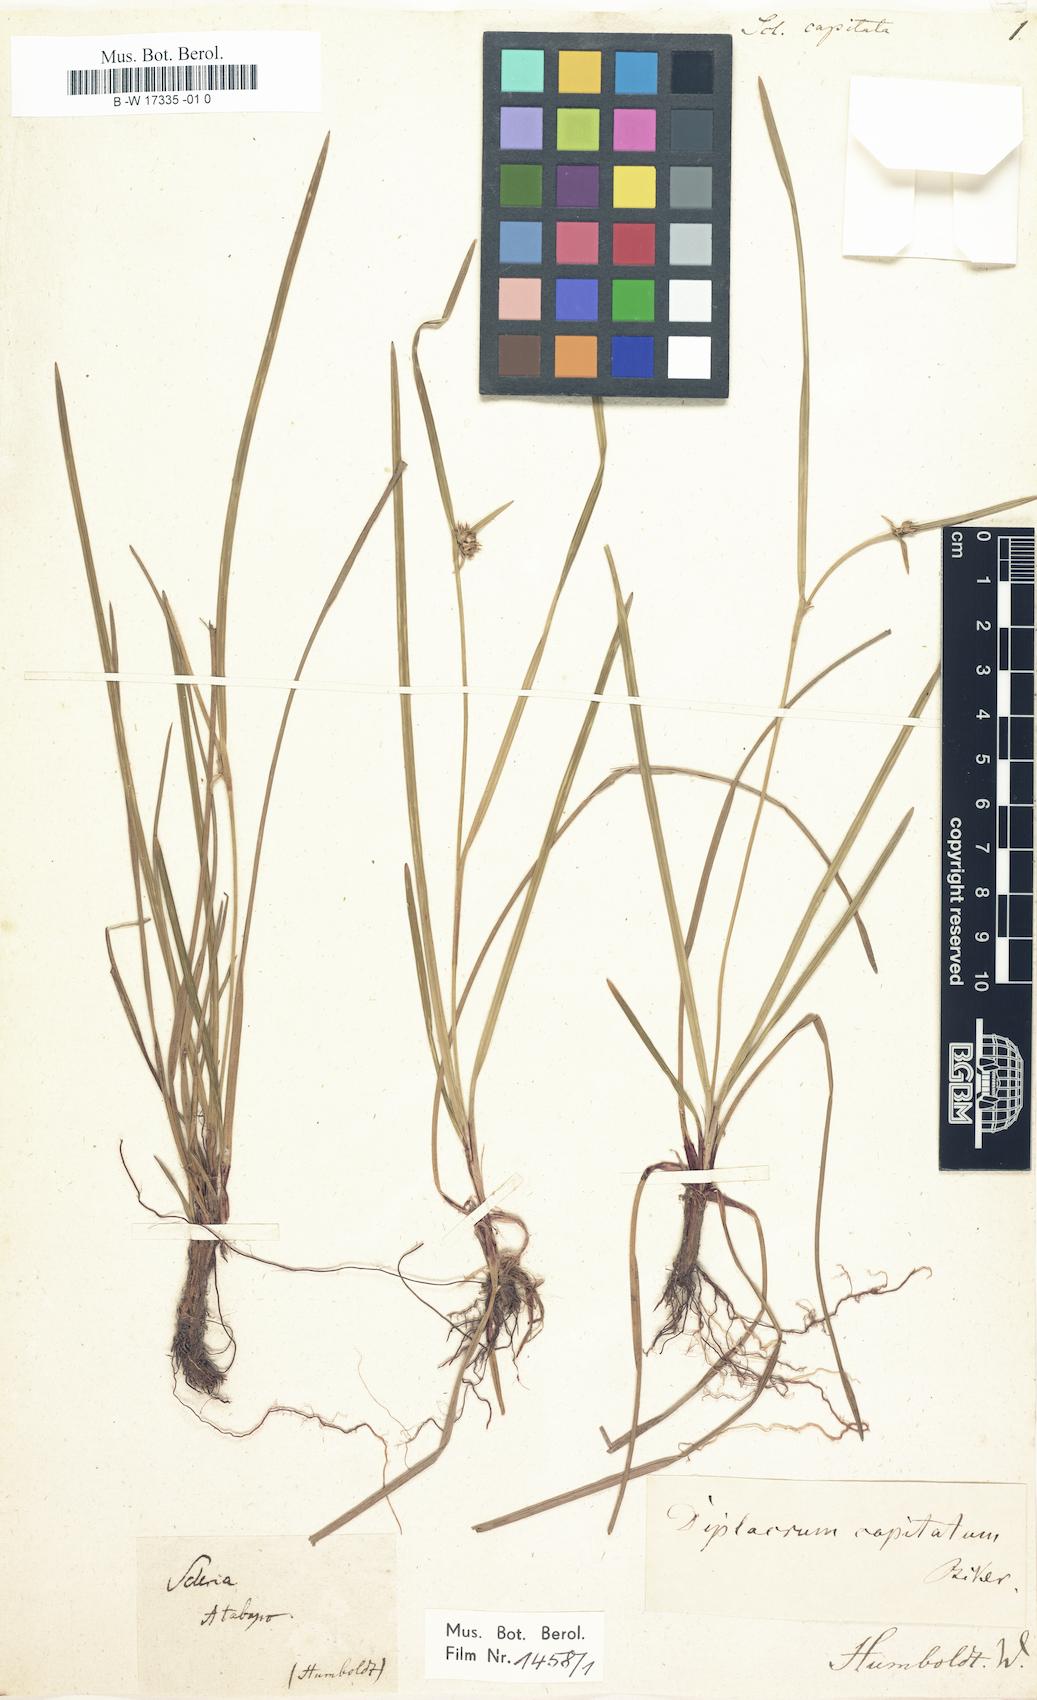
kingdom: Plantae
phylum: Tracheophyta
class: Liliopsida
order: Poales
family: Cyperaceae
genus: Diplacrum
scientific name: Diplacrum capitatum
